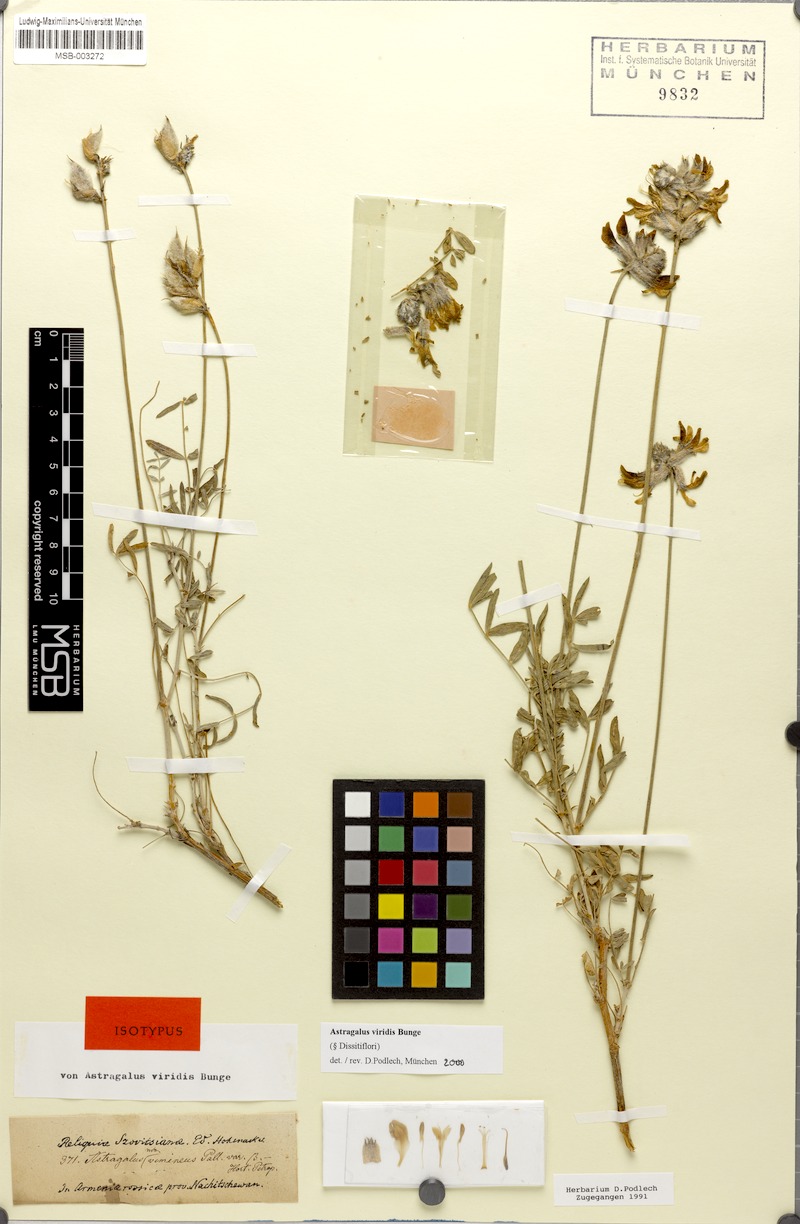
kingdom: Plantae
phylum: Tracheophyta
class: Magnoliopsida
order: Fabales
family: Fabaceae
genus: Astragalus
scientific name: Astragalus viridis
